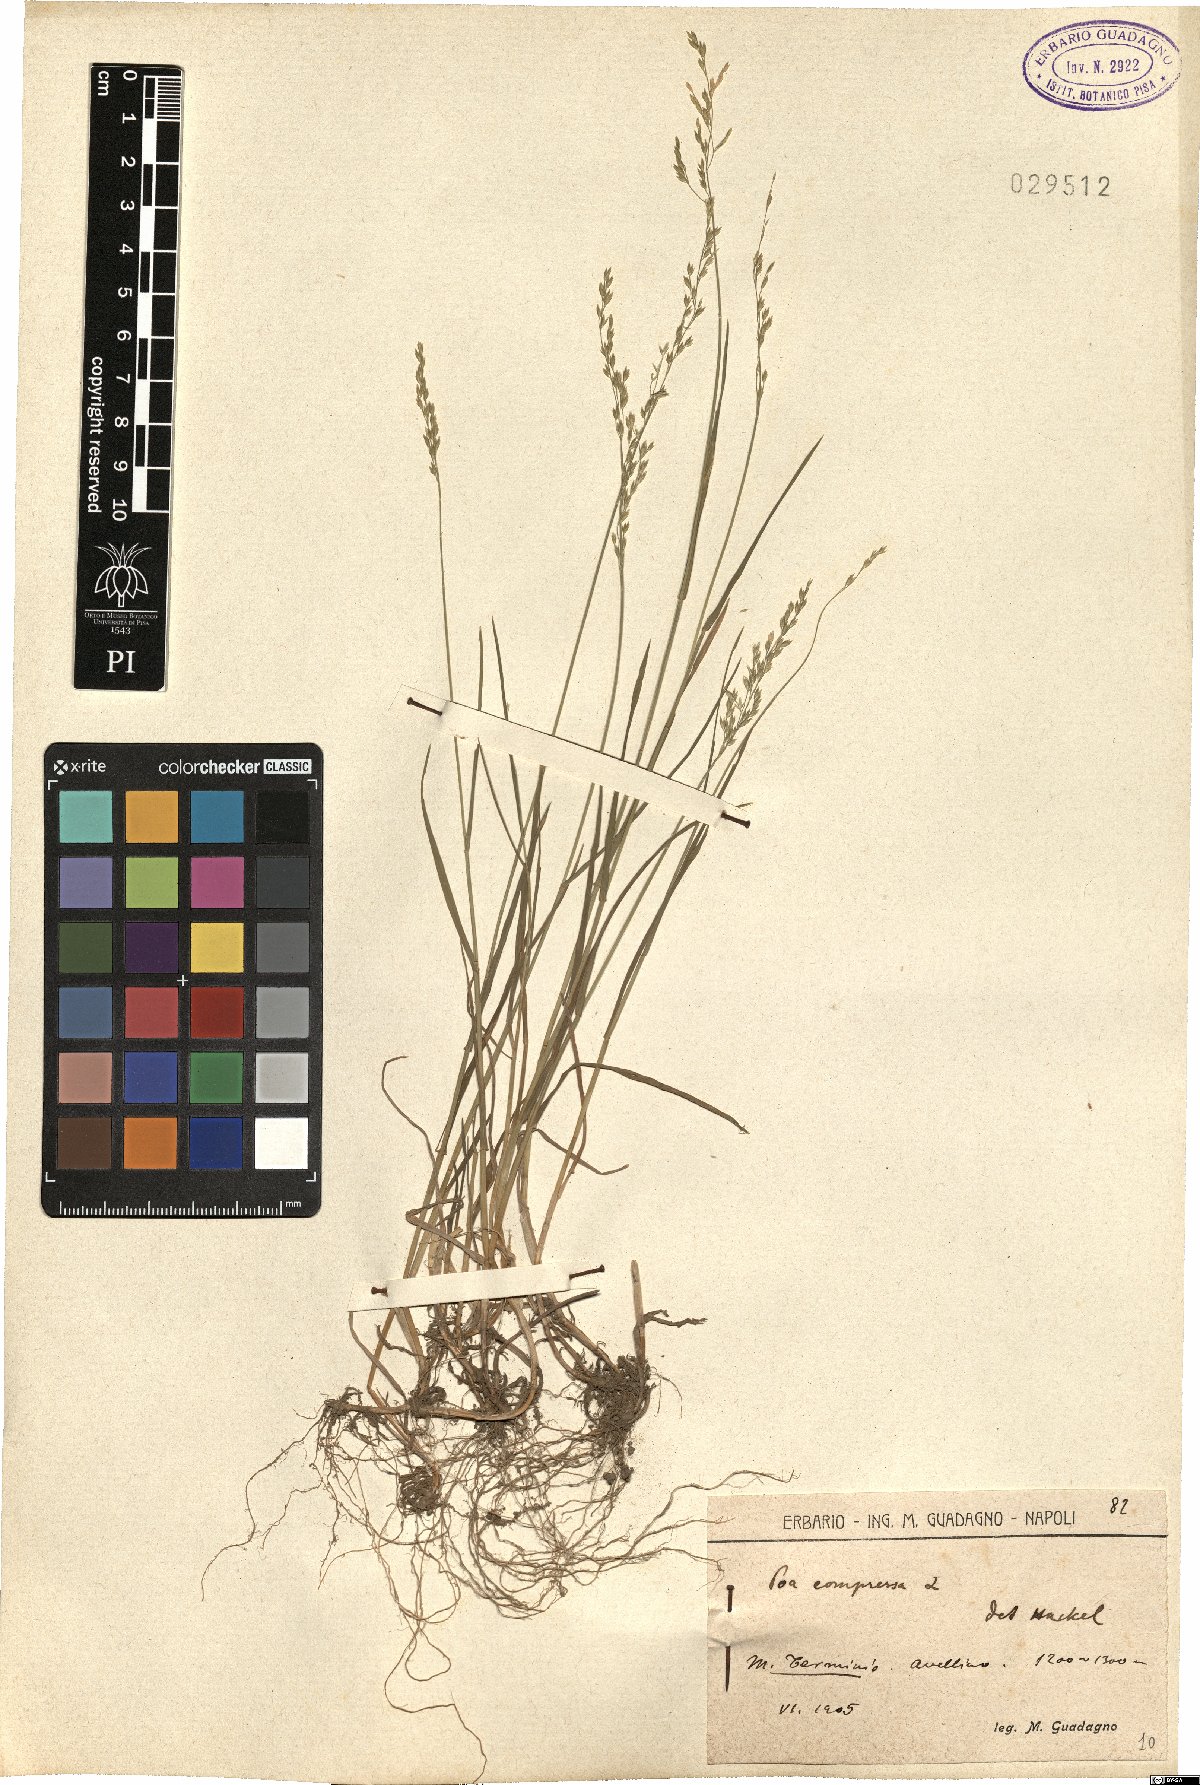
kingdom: Plantae
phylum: Tracheophyta
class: Liliopsida
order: Poales
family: Poaceae
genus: Poa
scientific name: Poa compressa
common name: Canada bluegrass
